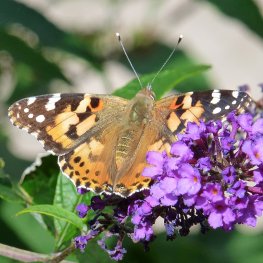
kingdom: Animalia
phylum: Arthropoda
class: Insecta
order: Lepidoptera
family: Nymphalidae
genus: Vanessa
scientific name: Vanessa cardui
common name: Painted Lady
